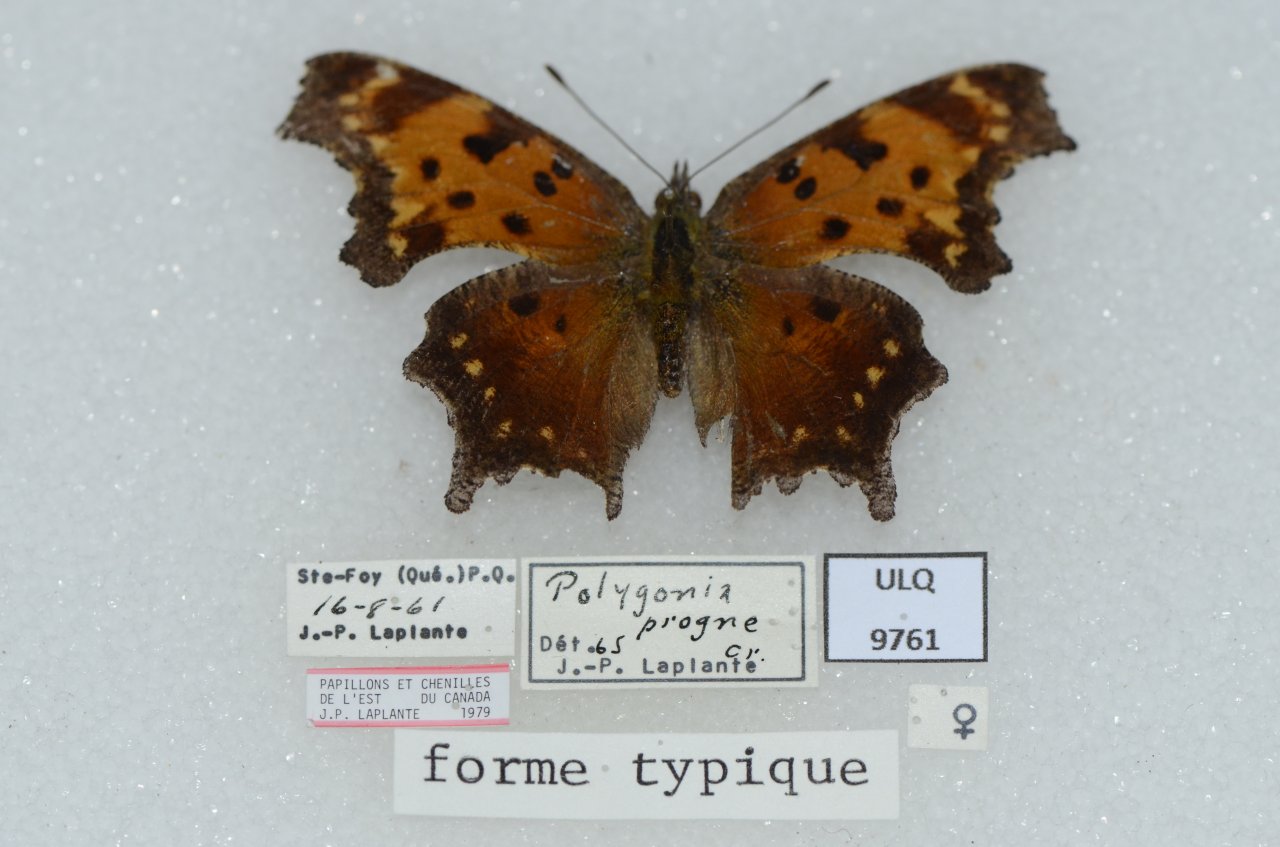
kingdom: Animalia
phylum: Arthropoda
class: Insecta
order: Lepidoptera
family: Nymphalidae
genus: Polygonia
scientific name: Polygonia progne
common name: Gray Comma
